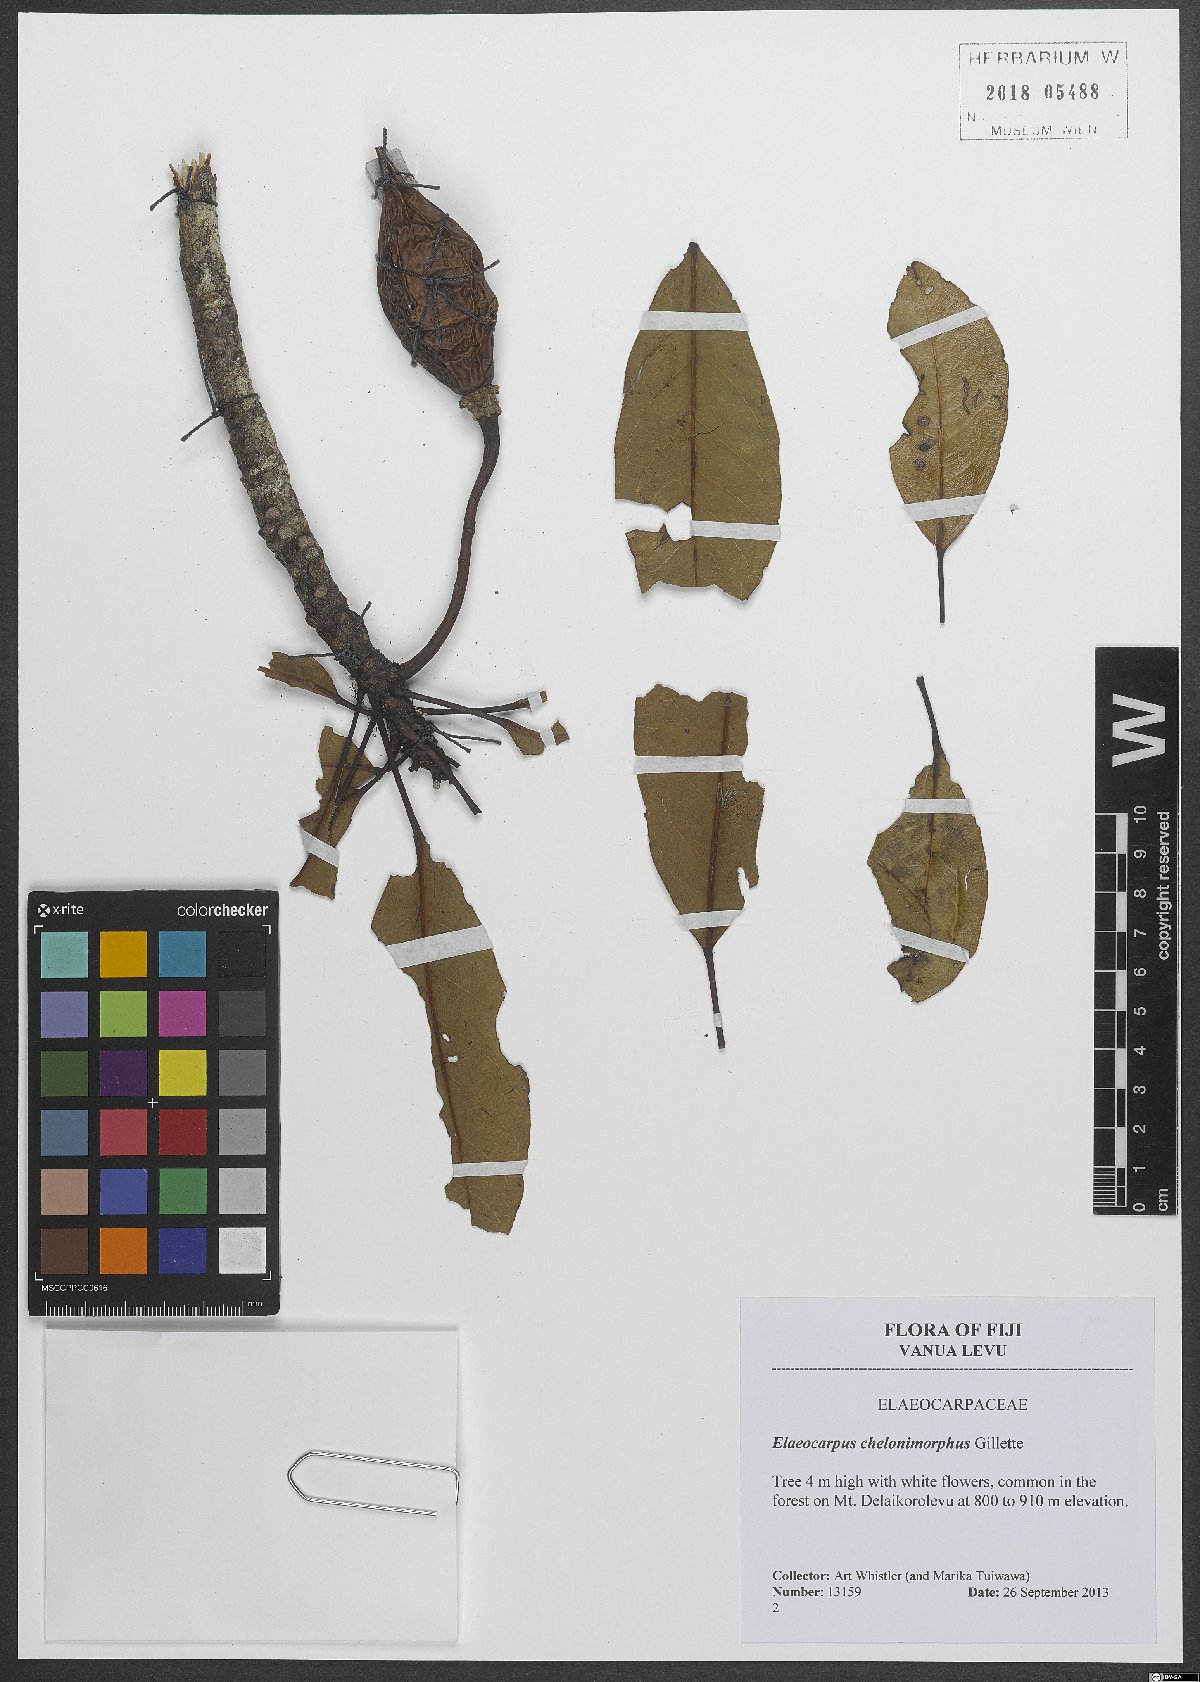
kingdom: Plantae
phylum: Tracheophyta
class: Magnoliopsida
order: Oxalidales
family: Elaeocarpaceae
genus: Elaeocarpus
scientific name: Elaeocarpus chelonimorphus
